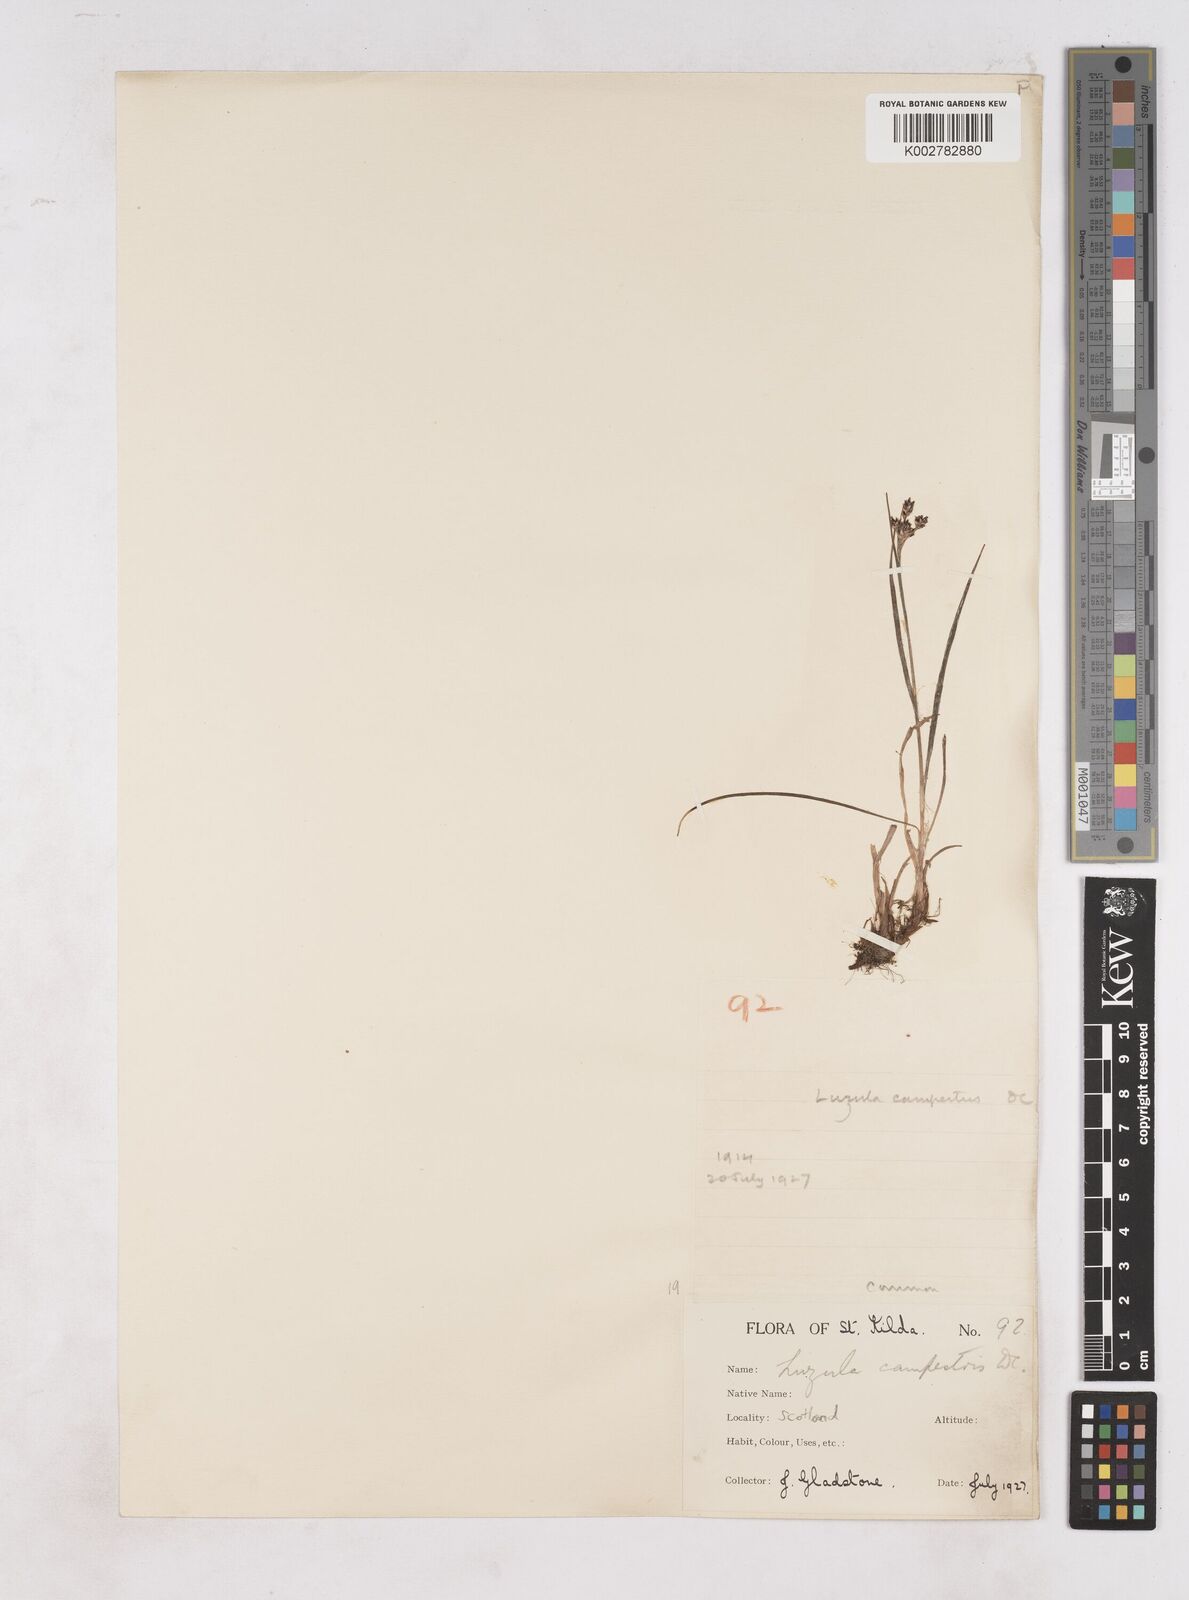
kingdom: Plantae
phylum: Tracheophyta
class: Liliopsida
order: Poales
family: Juncaceae
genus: Luzula
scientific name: Luzula campestris
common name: Field wood-rush
